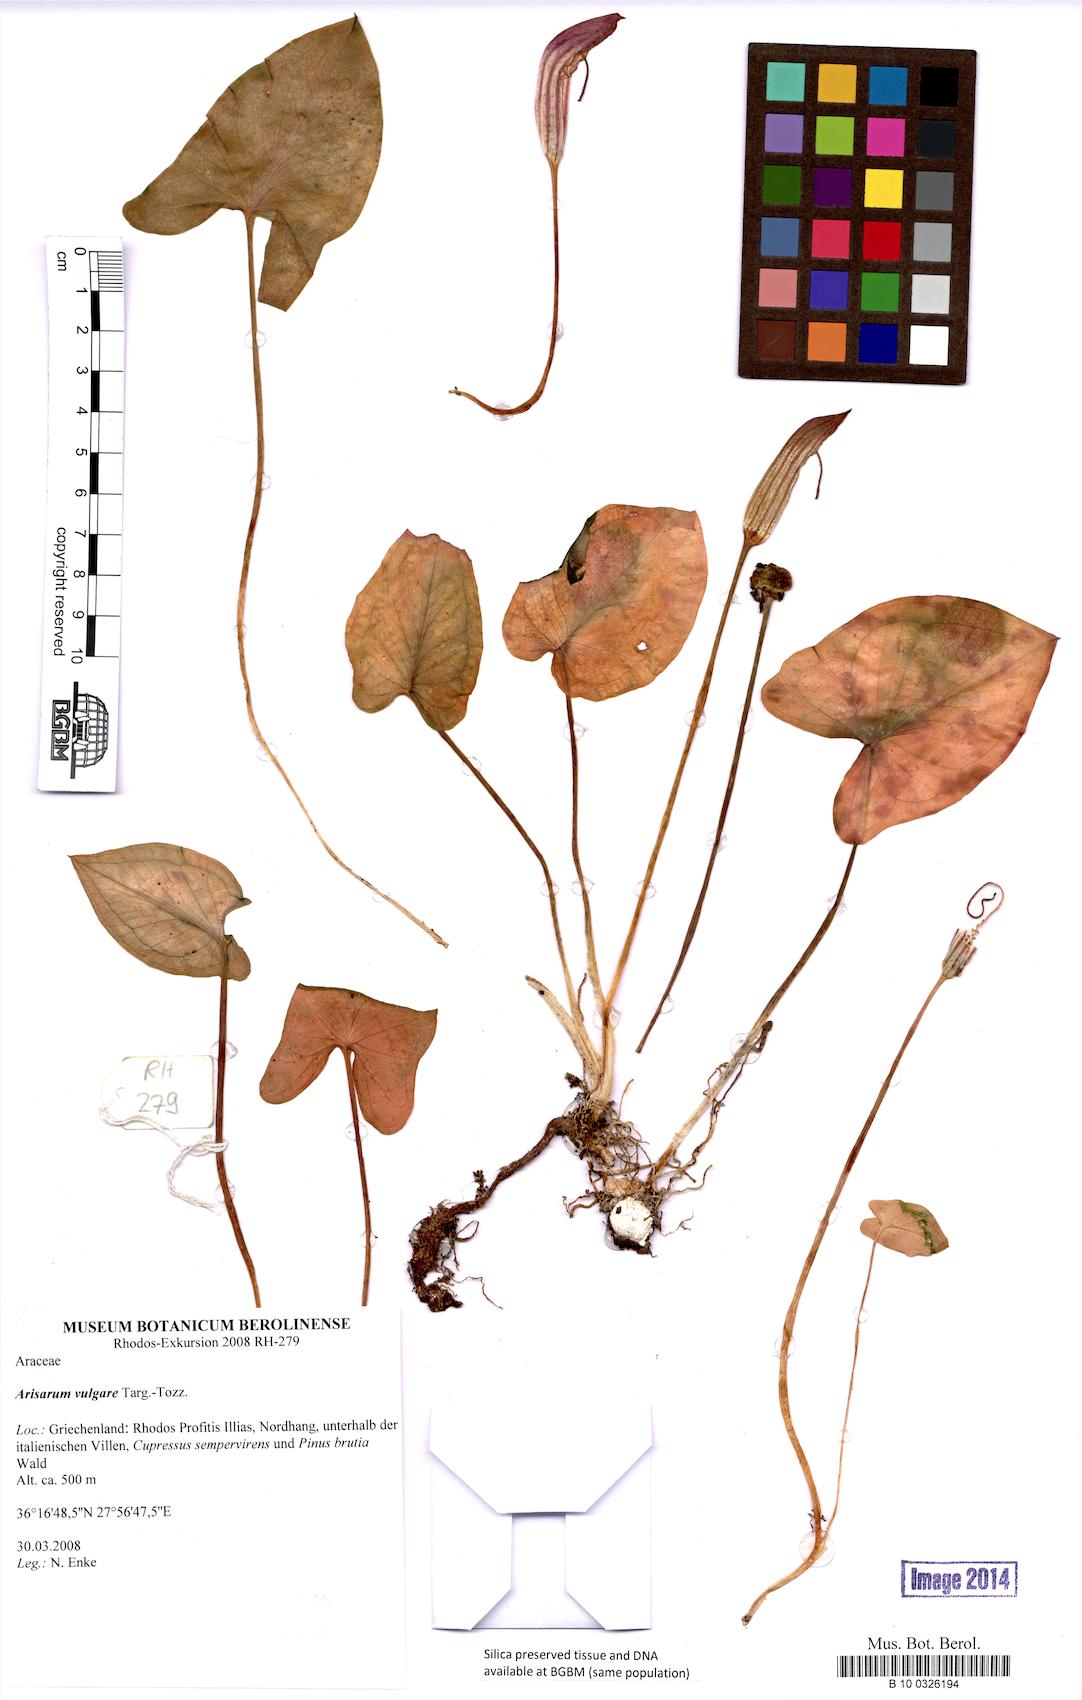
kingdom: Plantae
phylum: Tracheophyta
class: Liliopsida
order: Alismatales
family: Araceae
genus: Arisarum
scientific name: Arisarum vulgare
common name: Common arisarum
